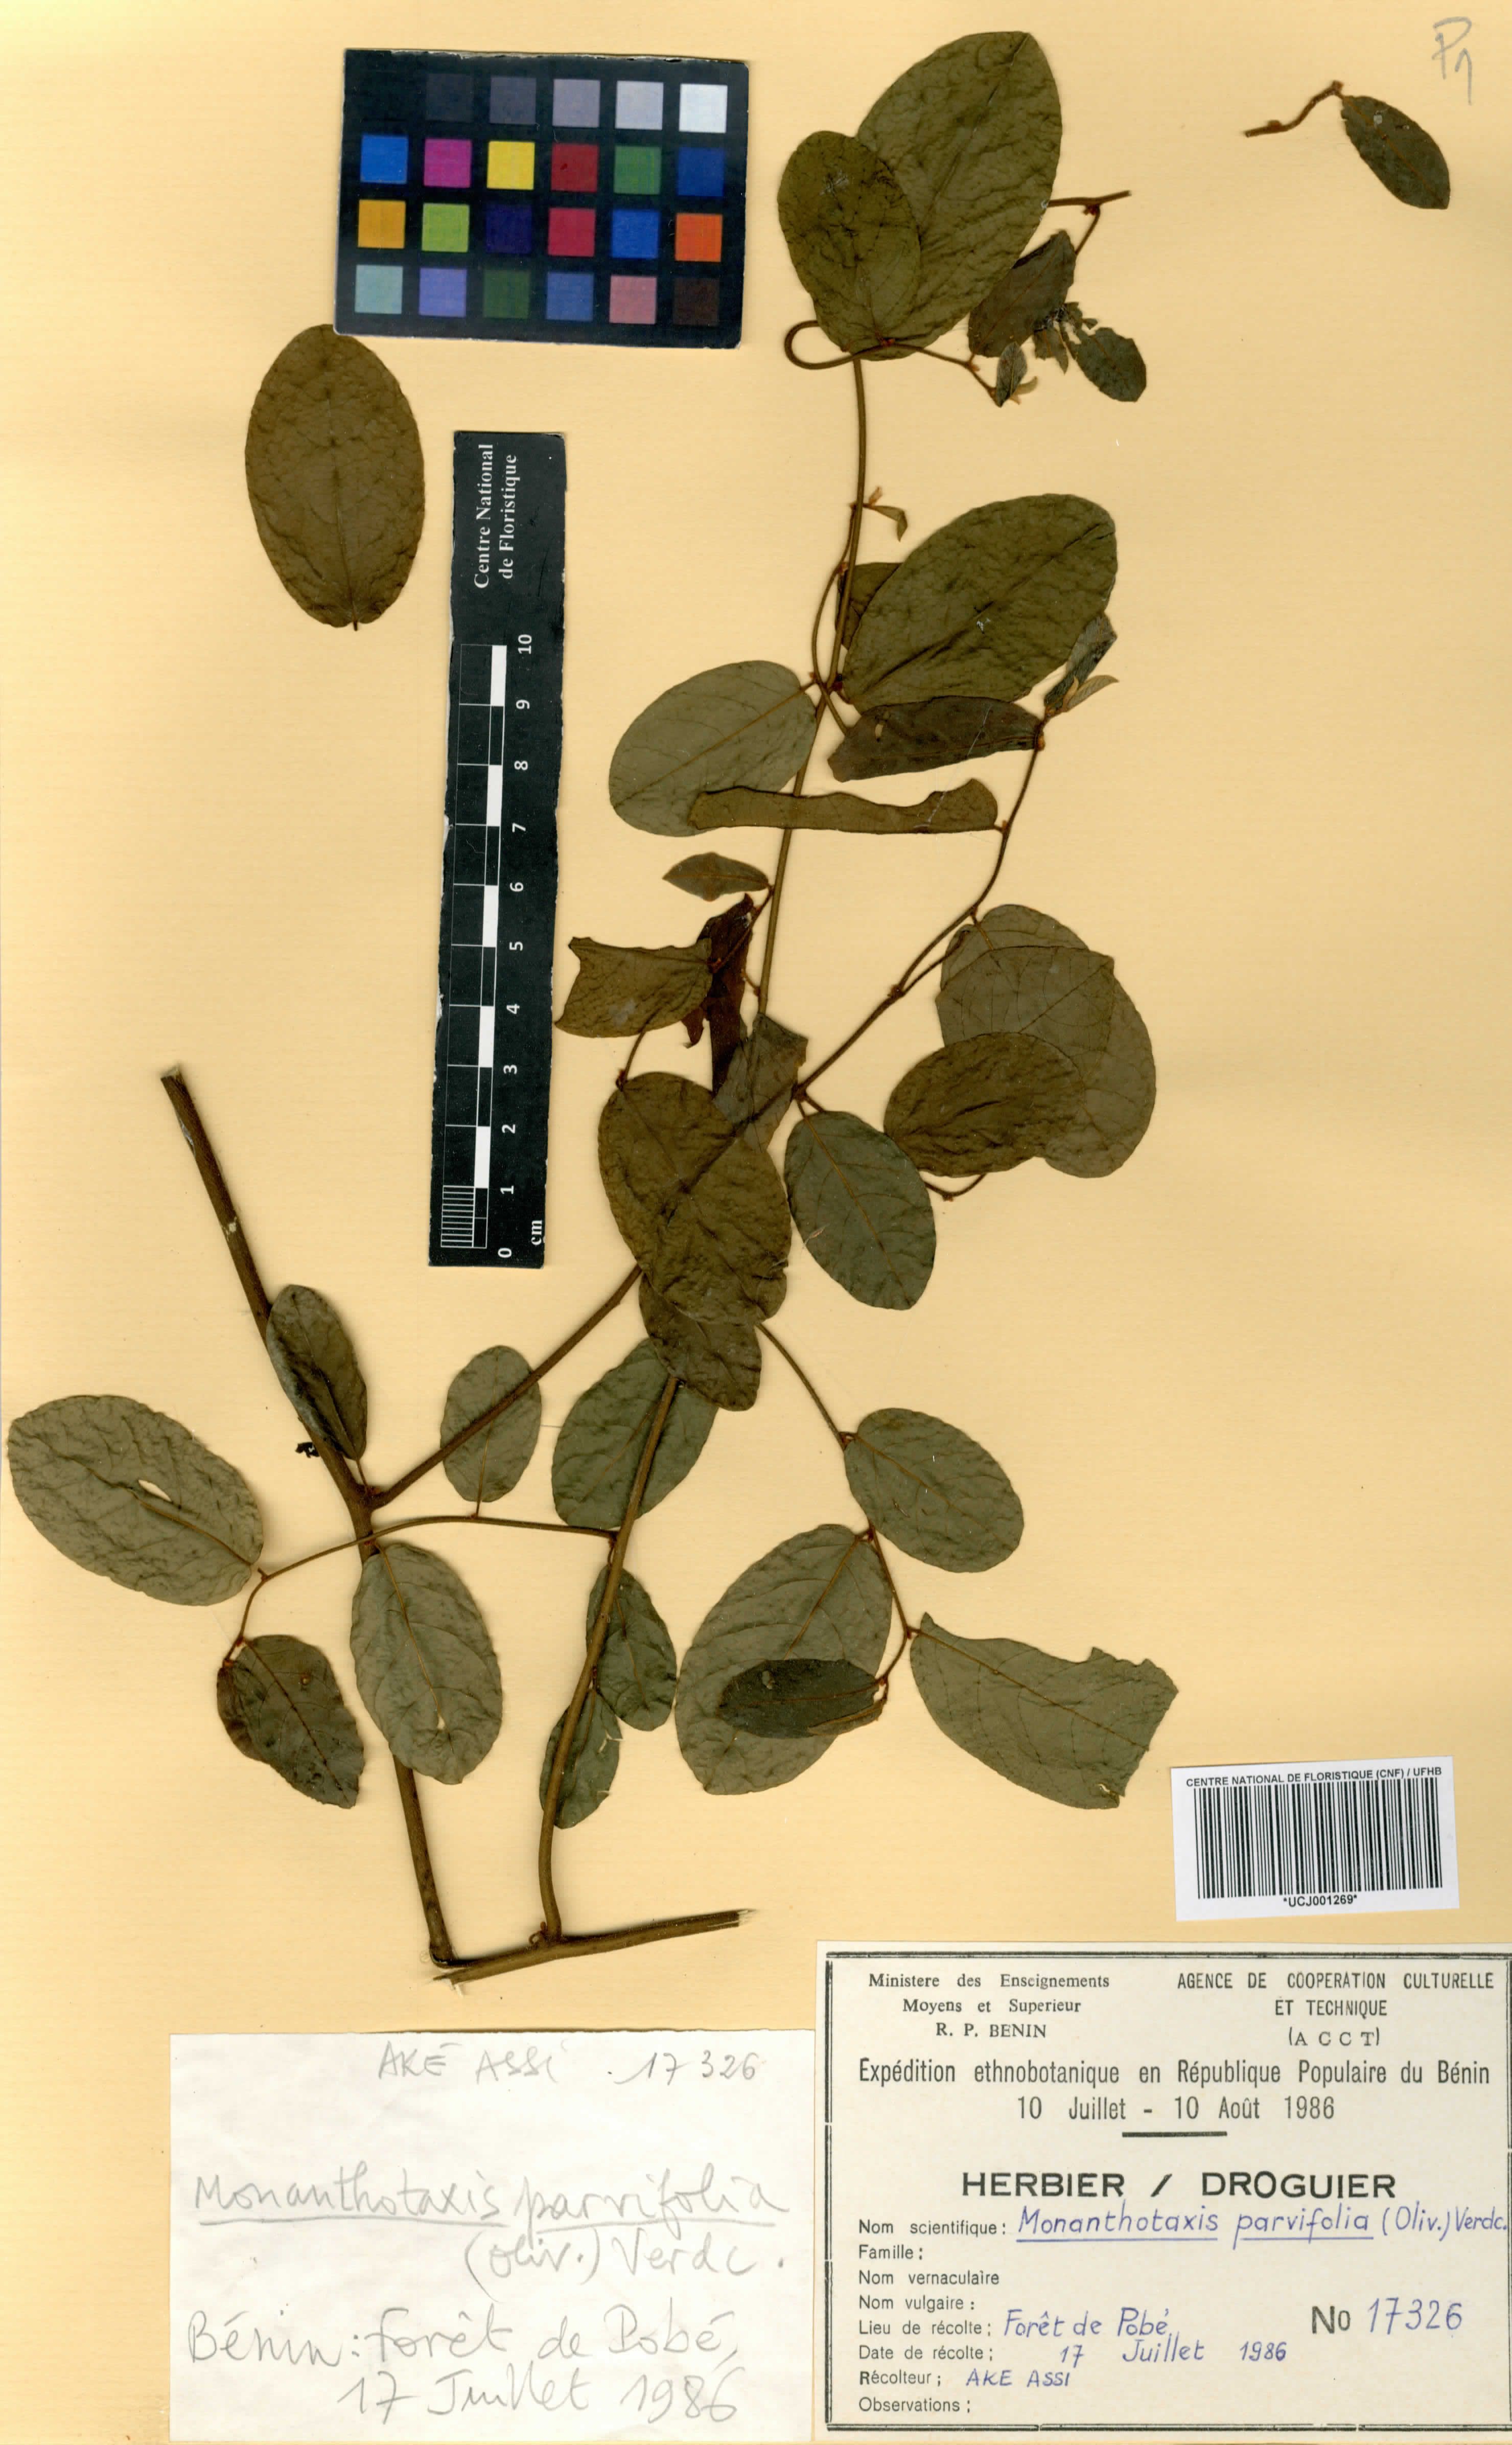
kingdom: Plantae
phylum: Tracheophyta
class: Magnoliopsida
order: Magnoliales
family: Annonaceae
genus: Monanthotaxis
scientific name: Monanthotaxis parvifolia
